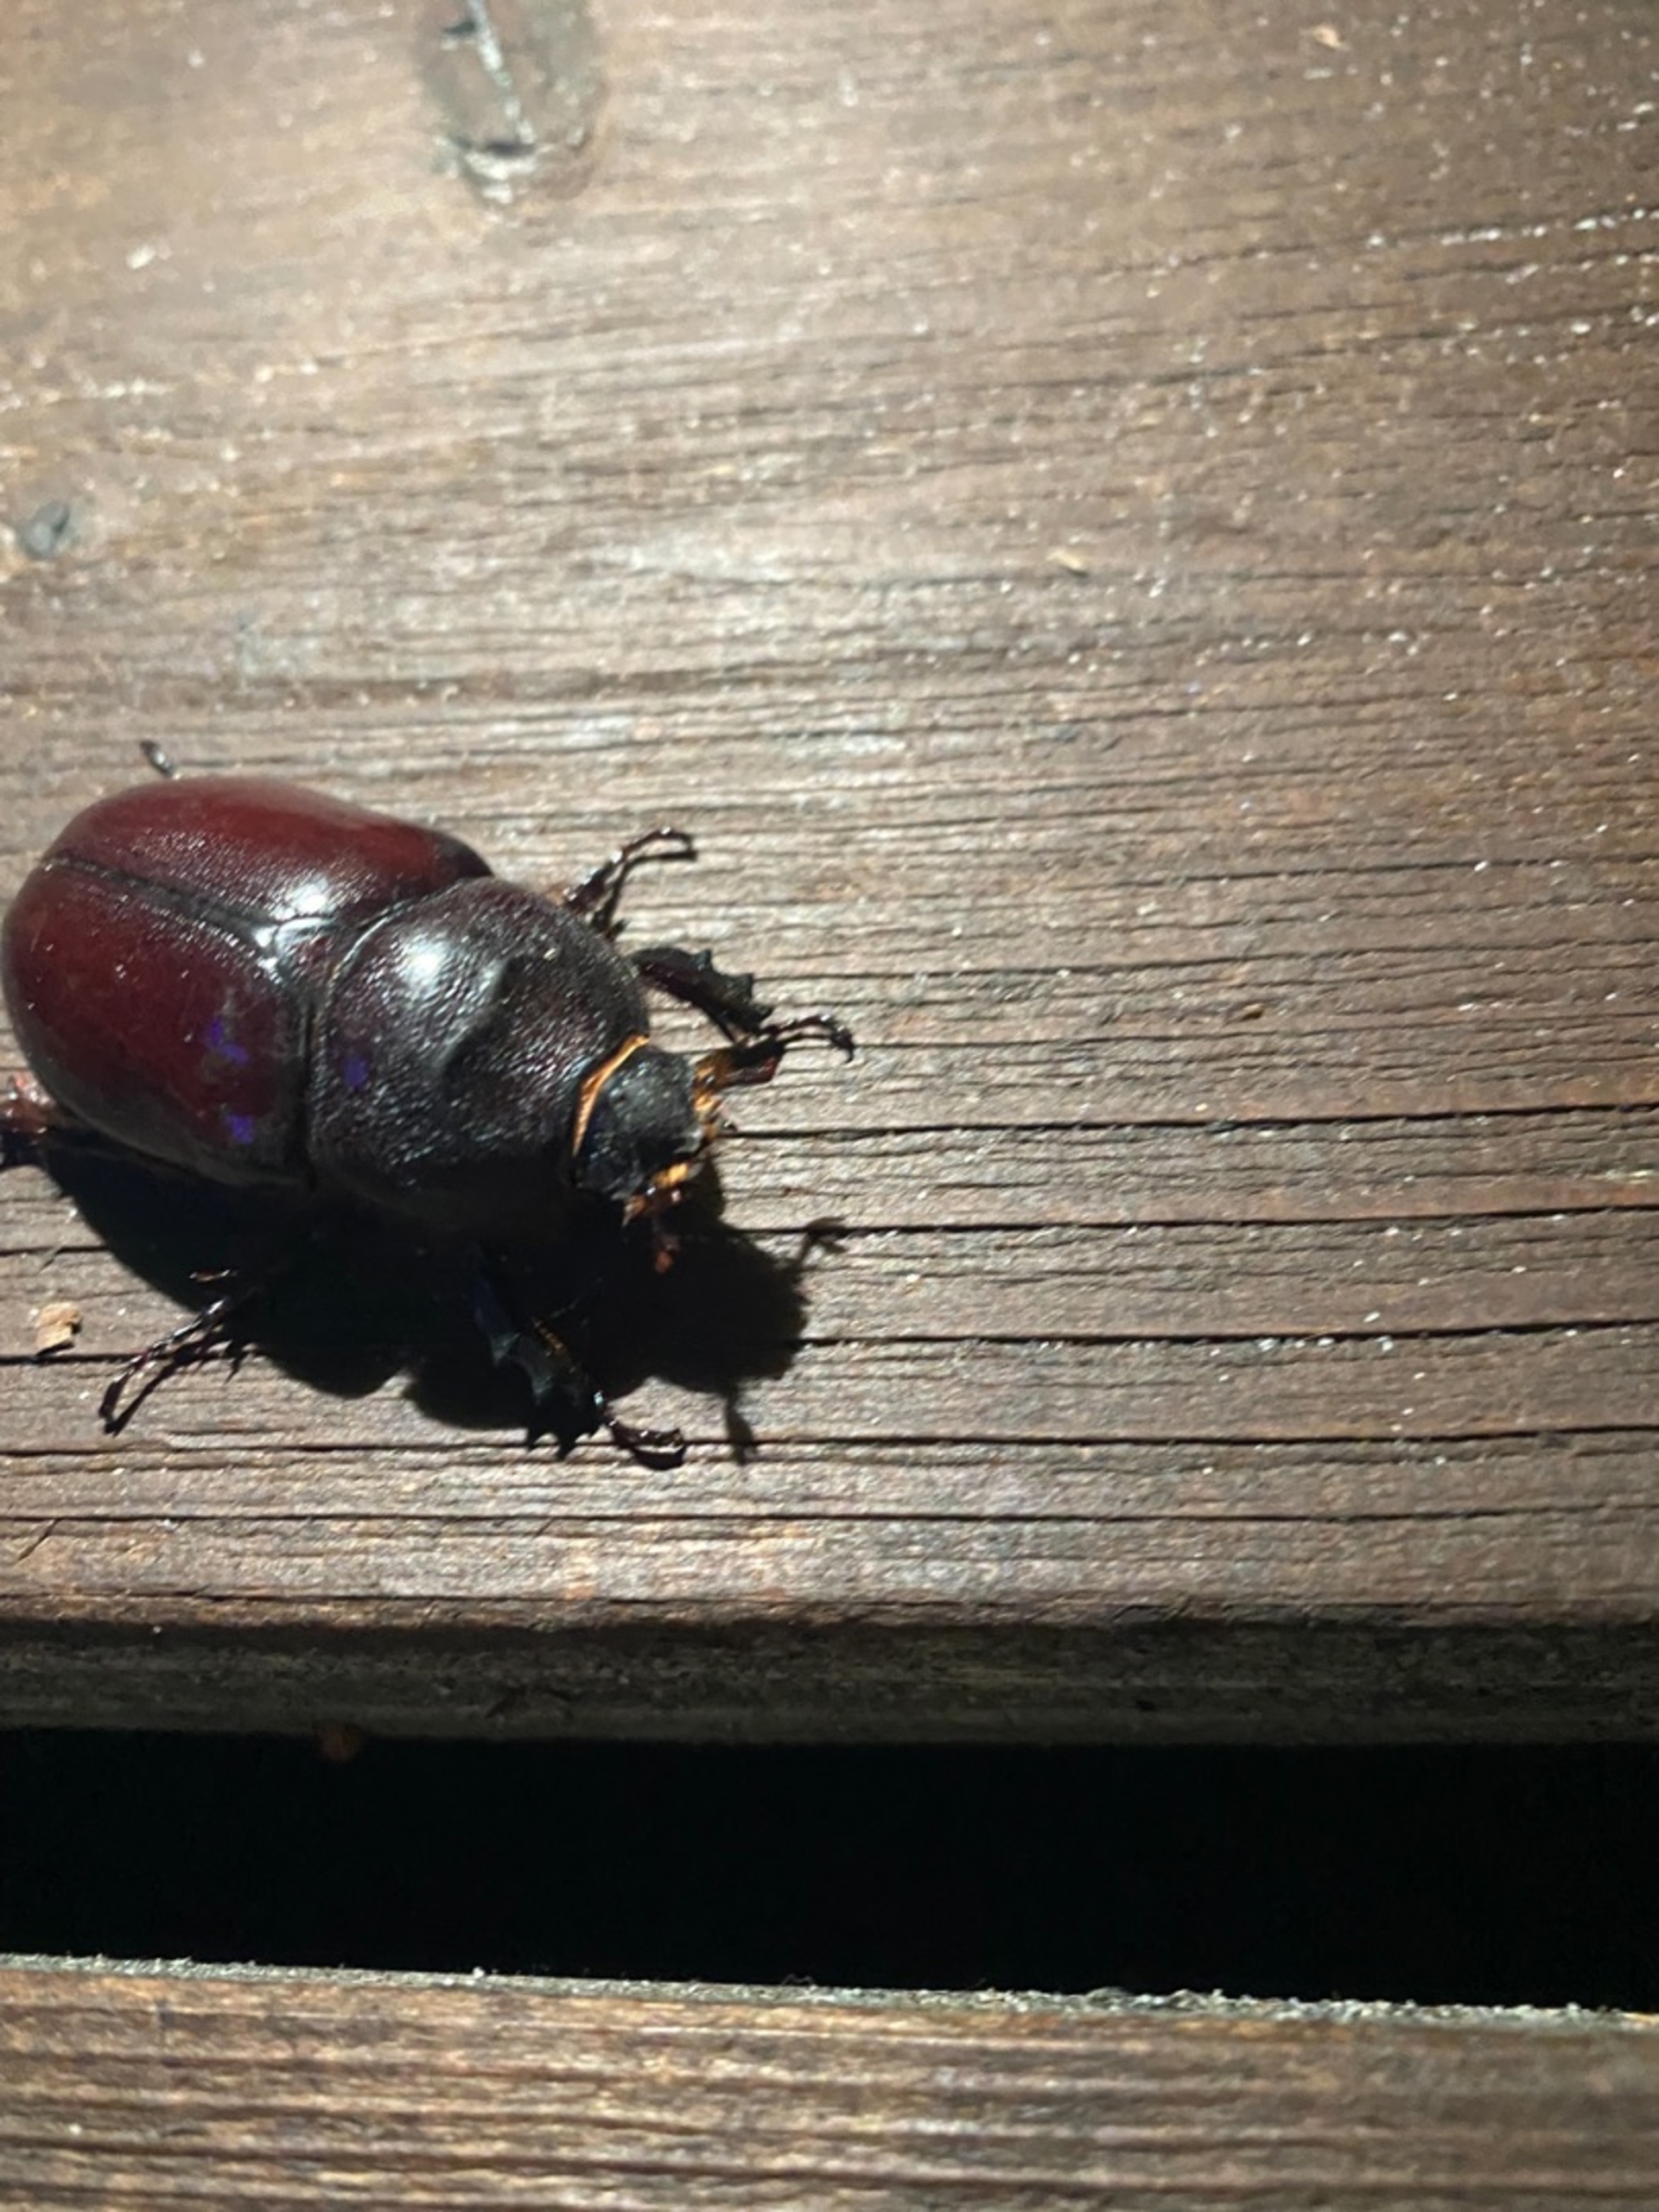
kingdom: Animalia
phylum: Arthropoda
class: Insecta
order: Coleoptera
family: Scarabaeidae
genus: Oryctes
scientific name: Oryctes nasicornis
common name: Næsehornsbille
